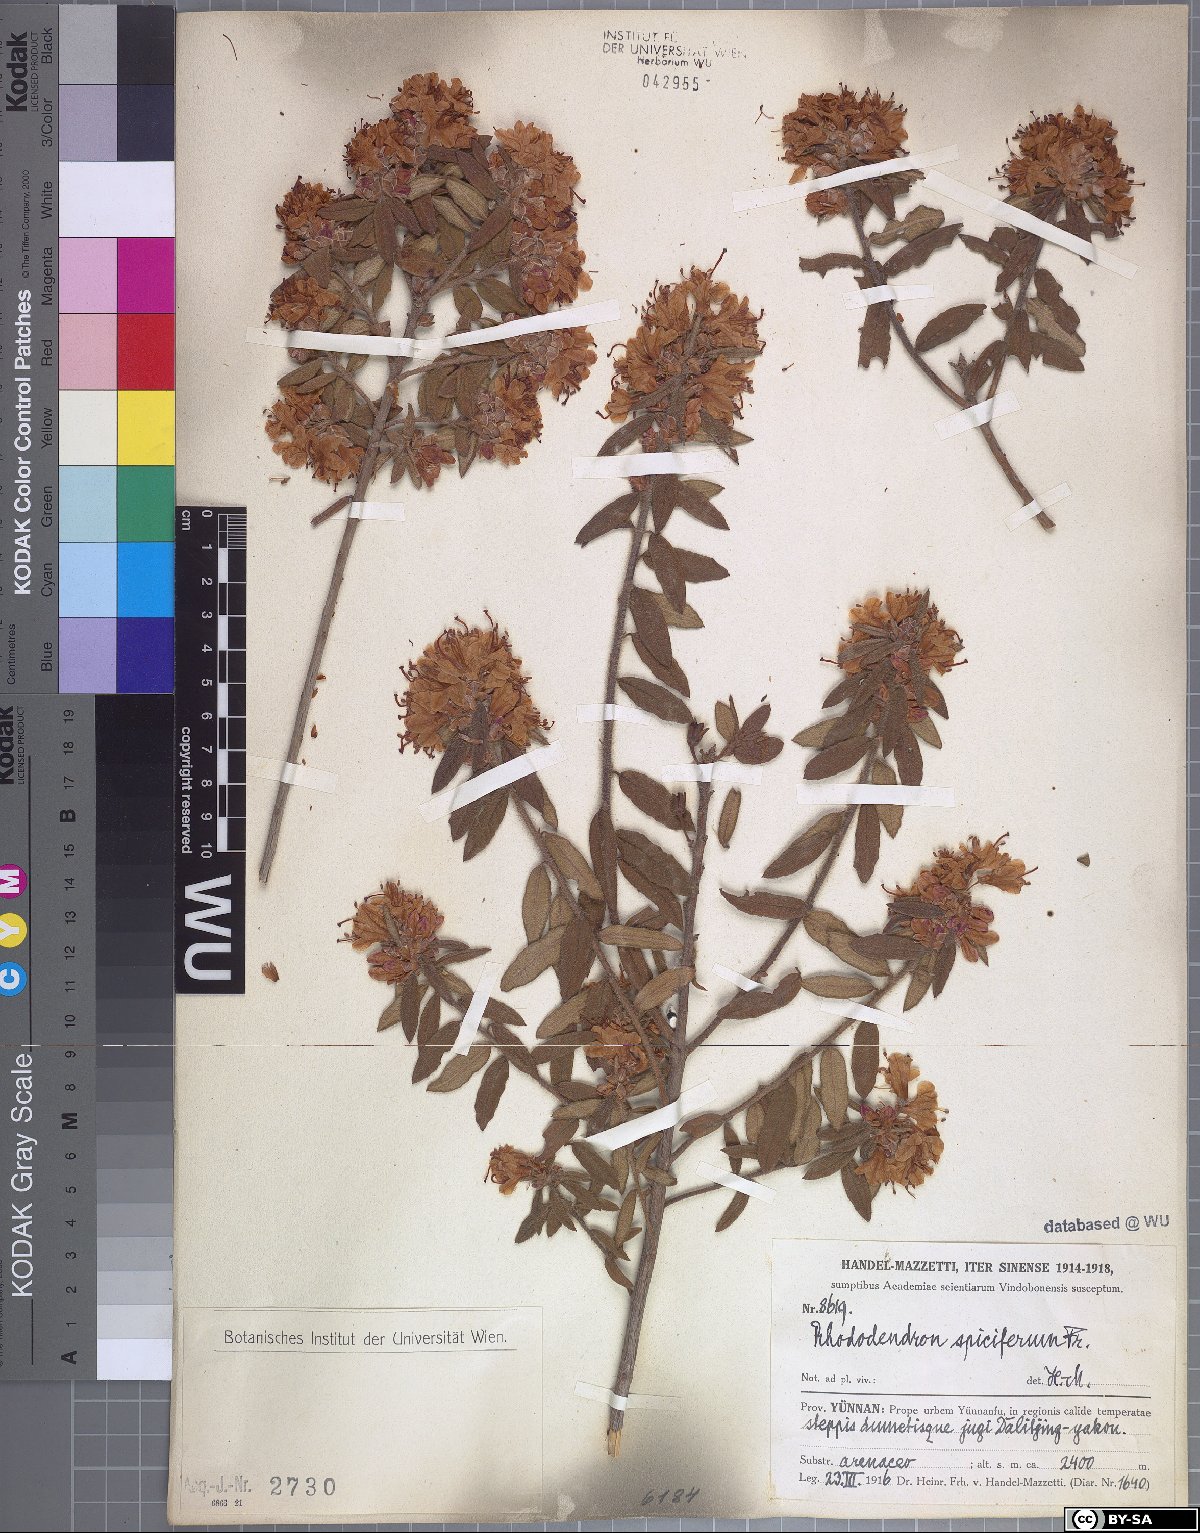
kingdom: Plantae
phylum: Tracheophyta
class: Magnoliopsida
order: Ericales
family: Ericaceae
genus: Rhododendron
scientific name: Rhododendron spiciferum
